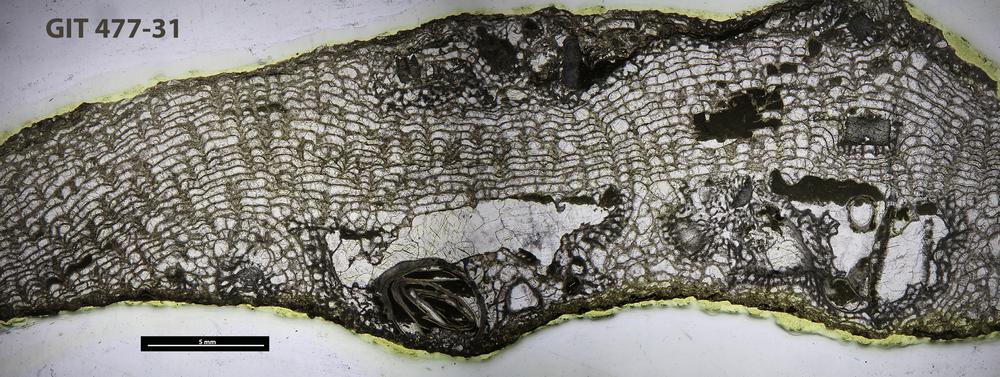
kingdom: Animalia
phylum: Porifera
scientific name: Porifera
